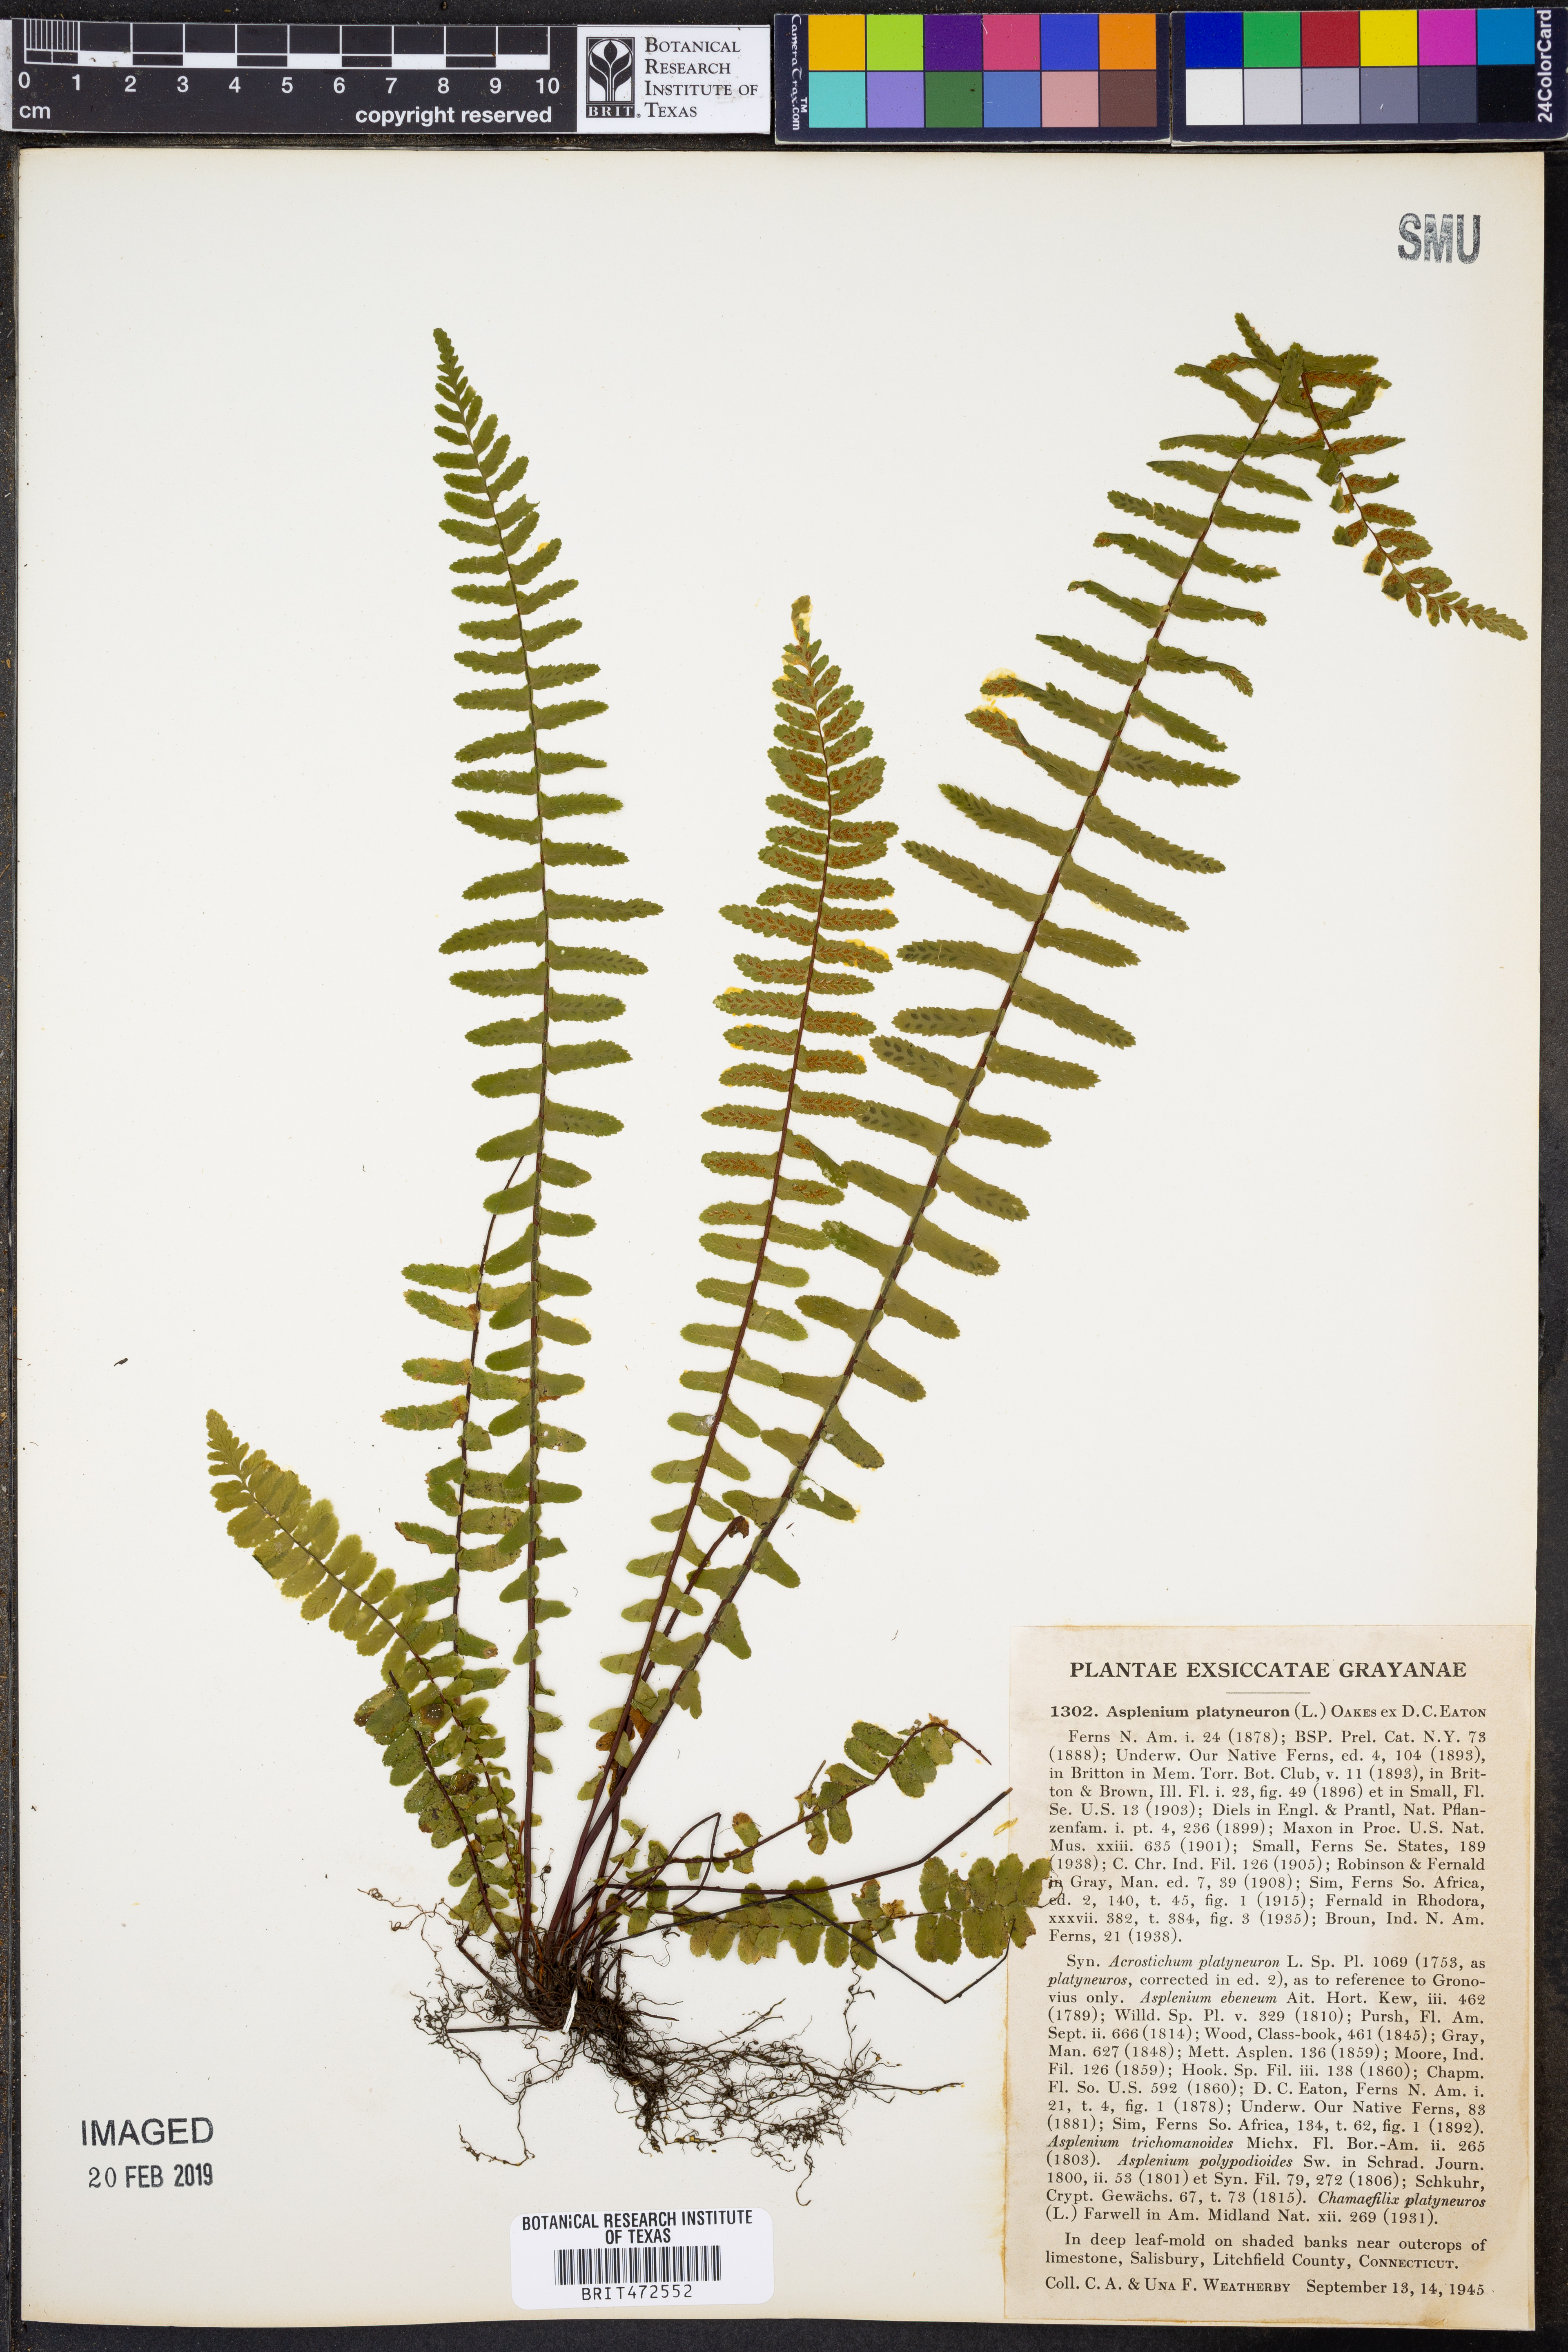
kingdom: Plantae
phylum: Tracheophyta
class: Polypodiopsida
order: Polypodiales
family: Aspleniaceae
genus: Asplenium
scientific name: Asplenium platyneuron
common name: Ebony spleenwort
